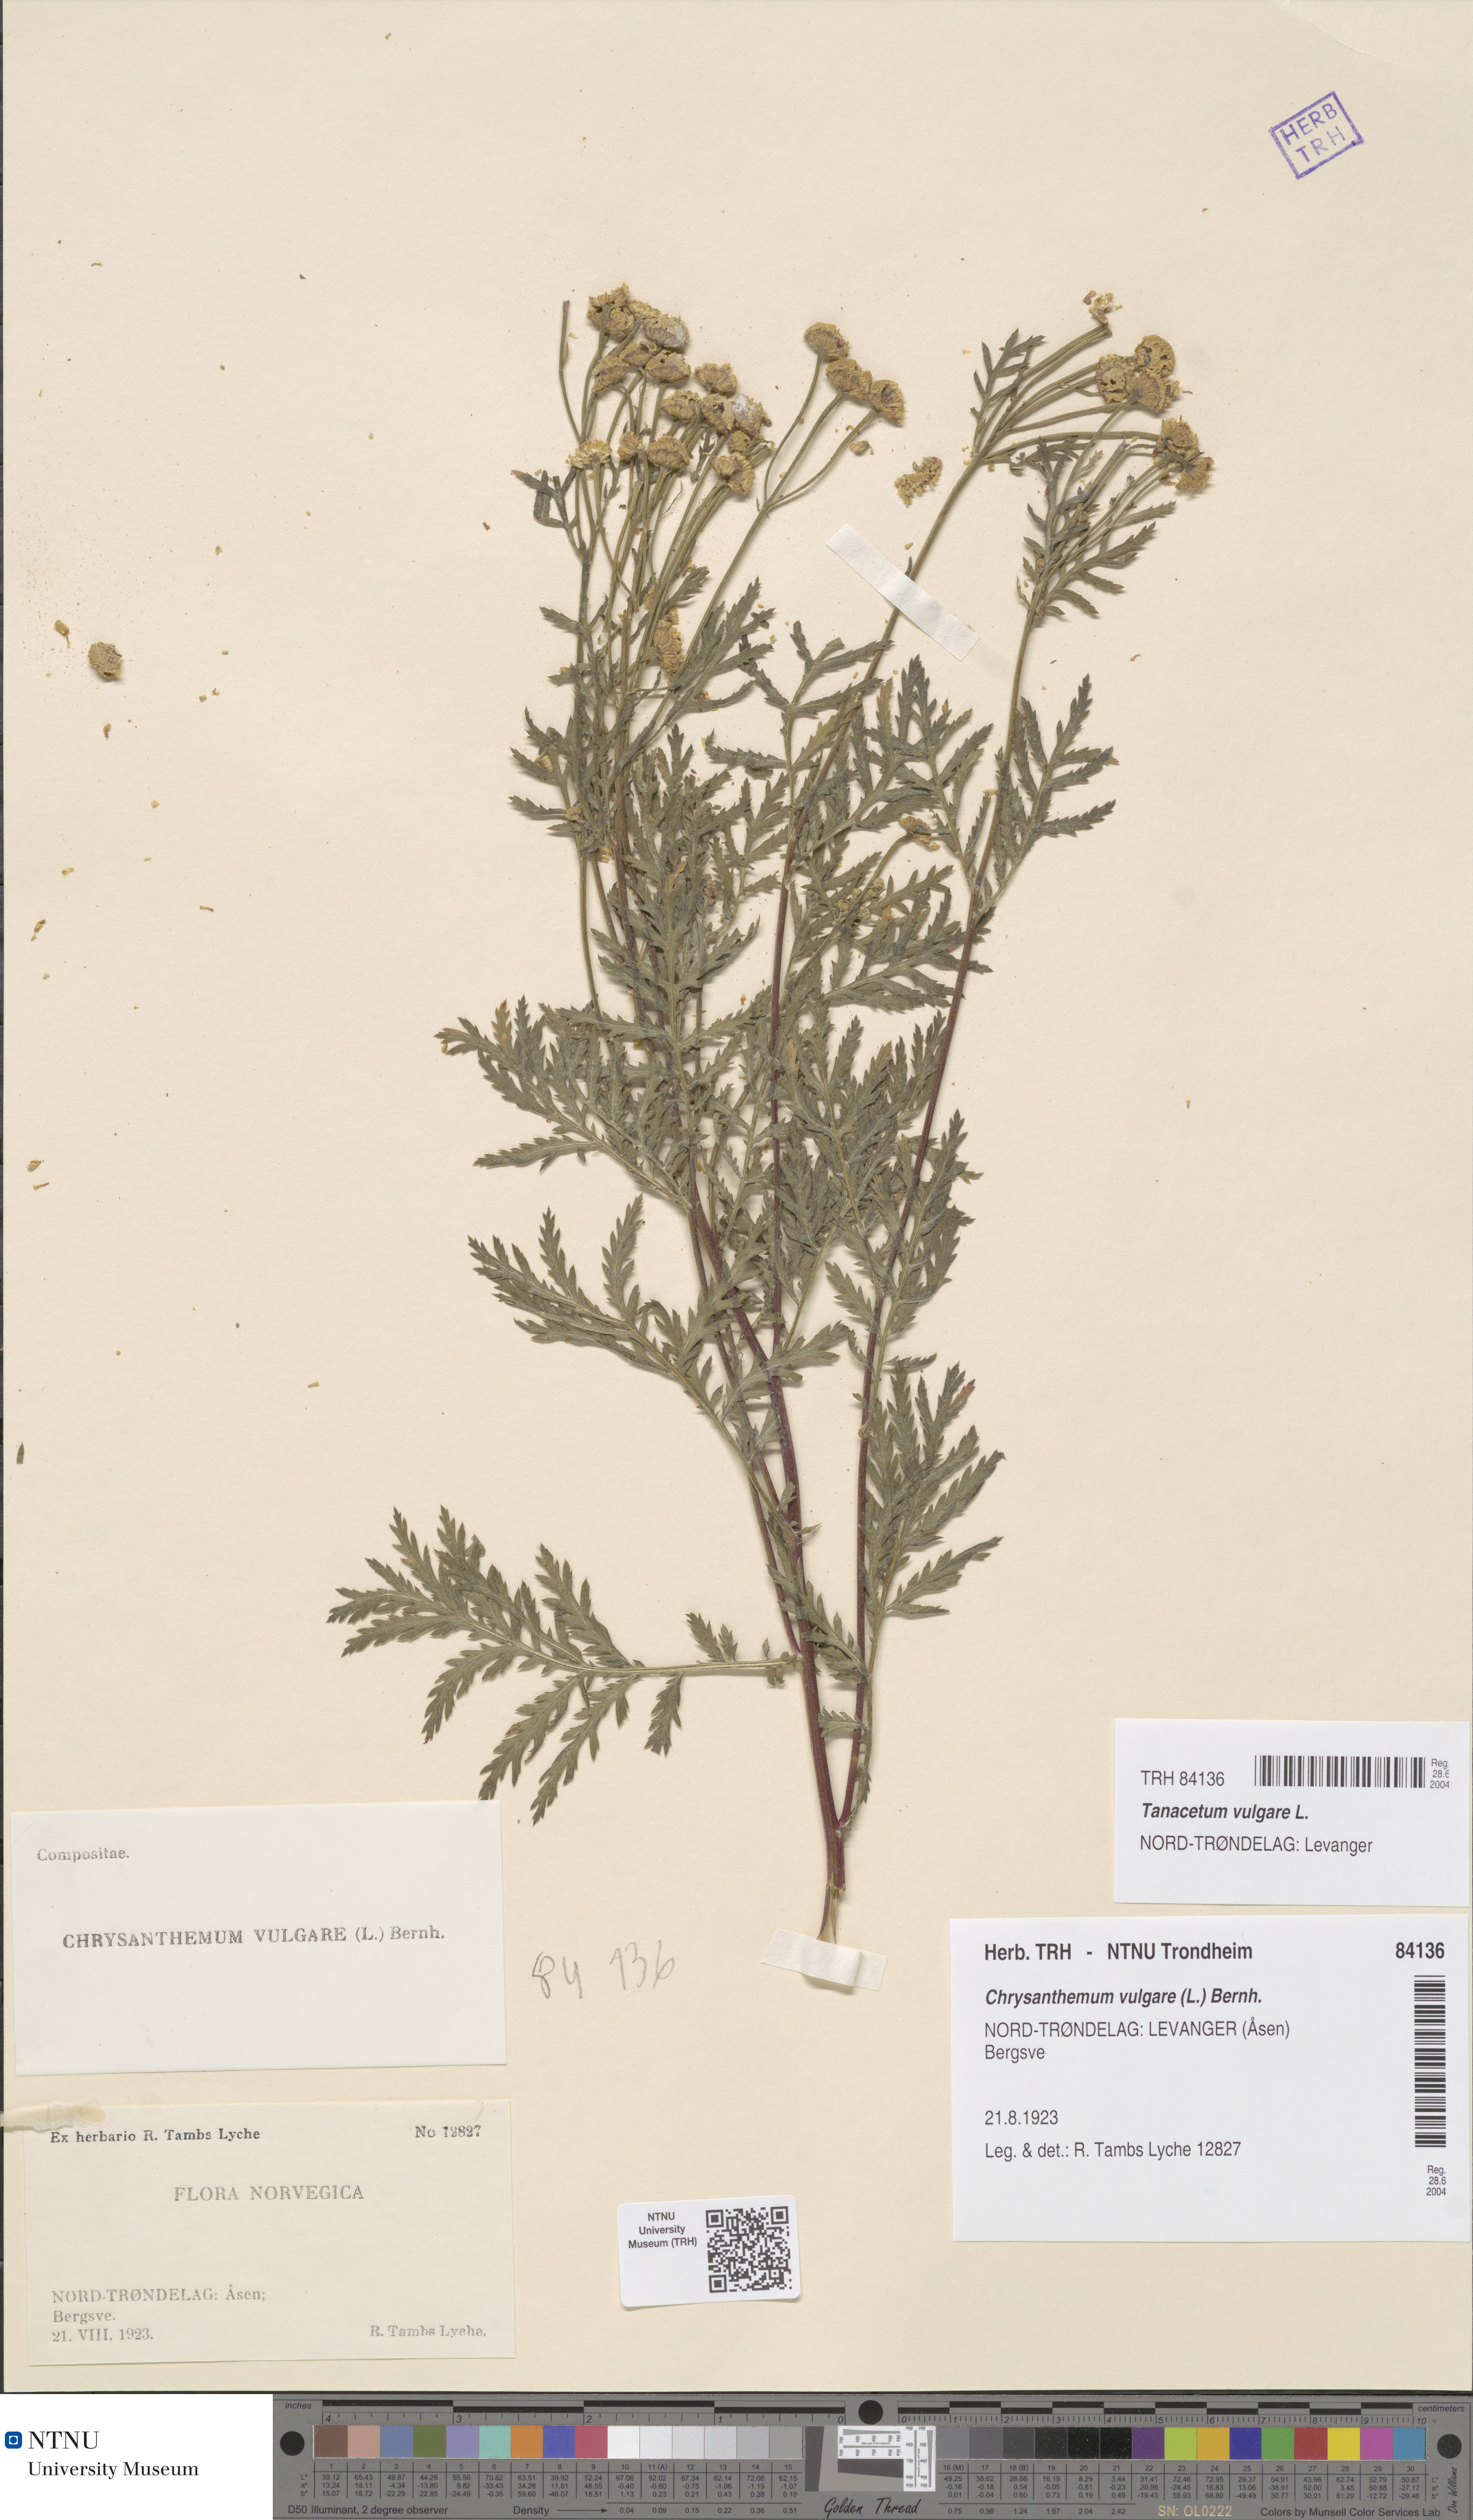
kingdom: Plantae
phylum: Tracheophyta
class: Magnoliopsida
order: Asterales
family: Asteraceae
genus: Tanacetum
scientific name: Tanacetum vulgare
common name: Common tansy
